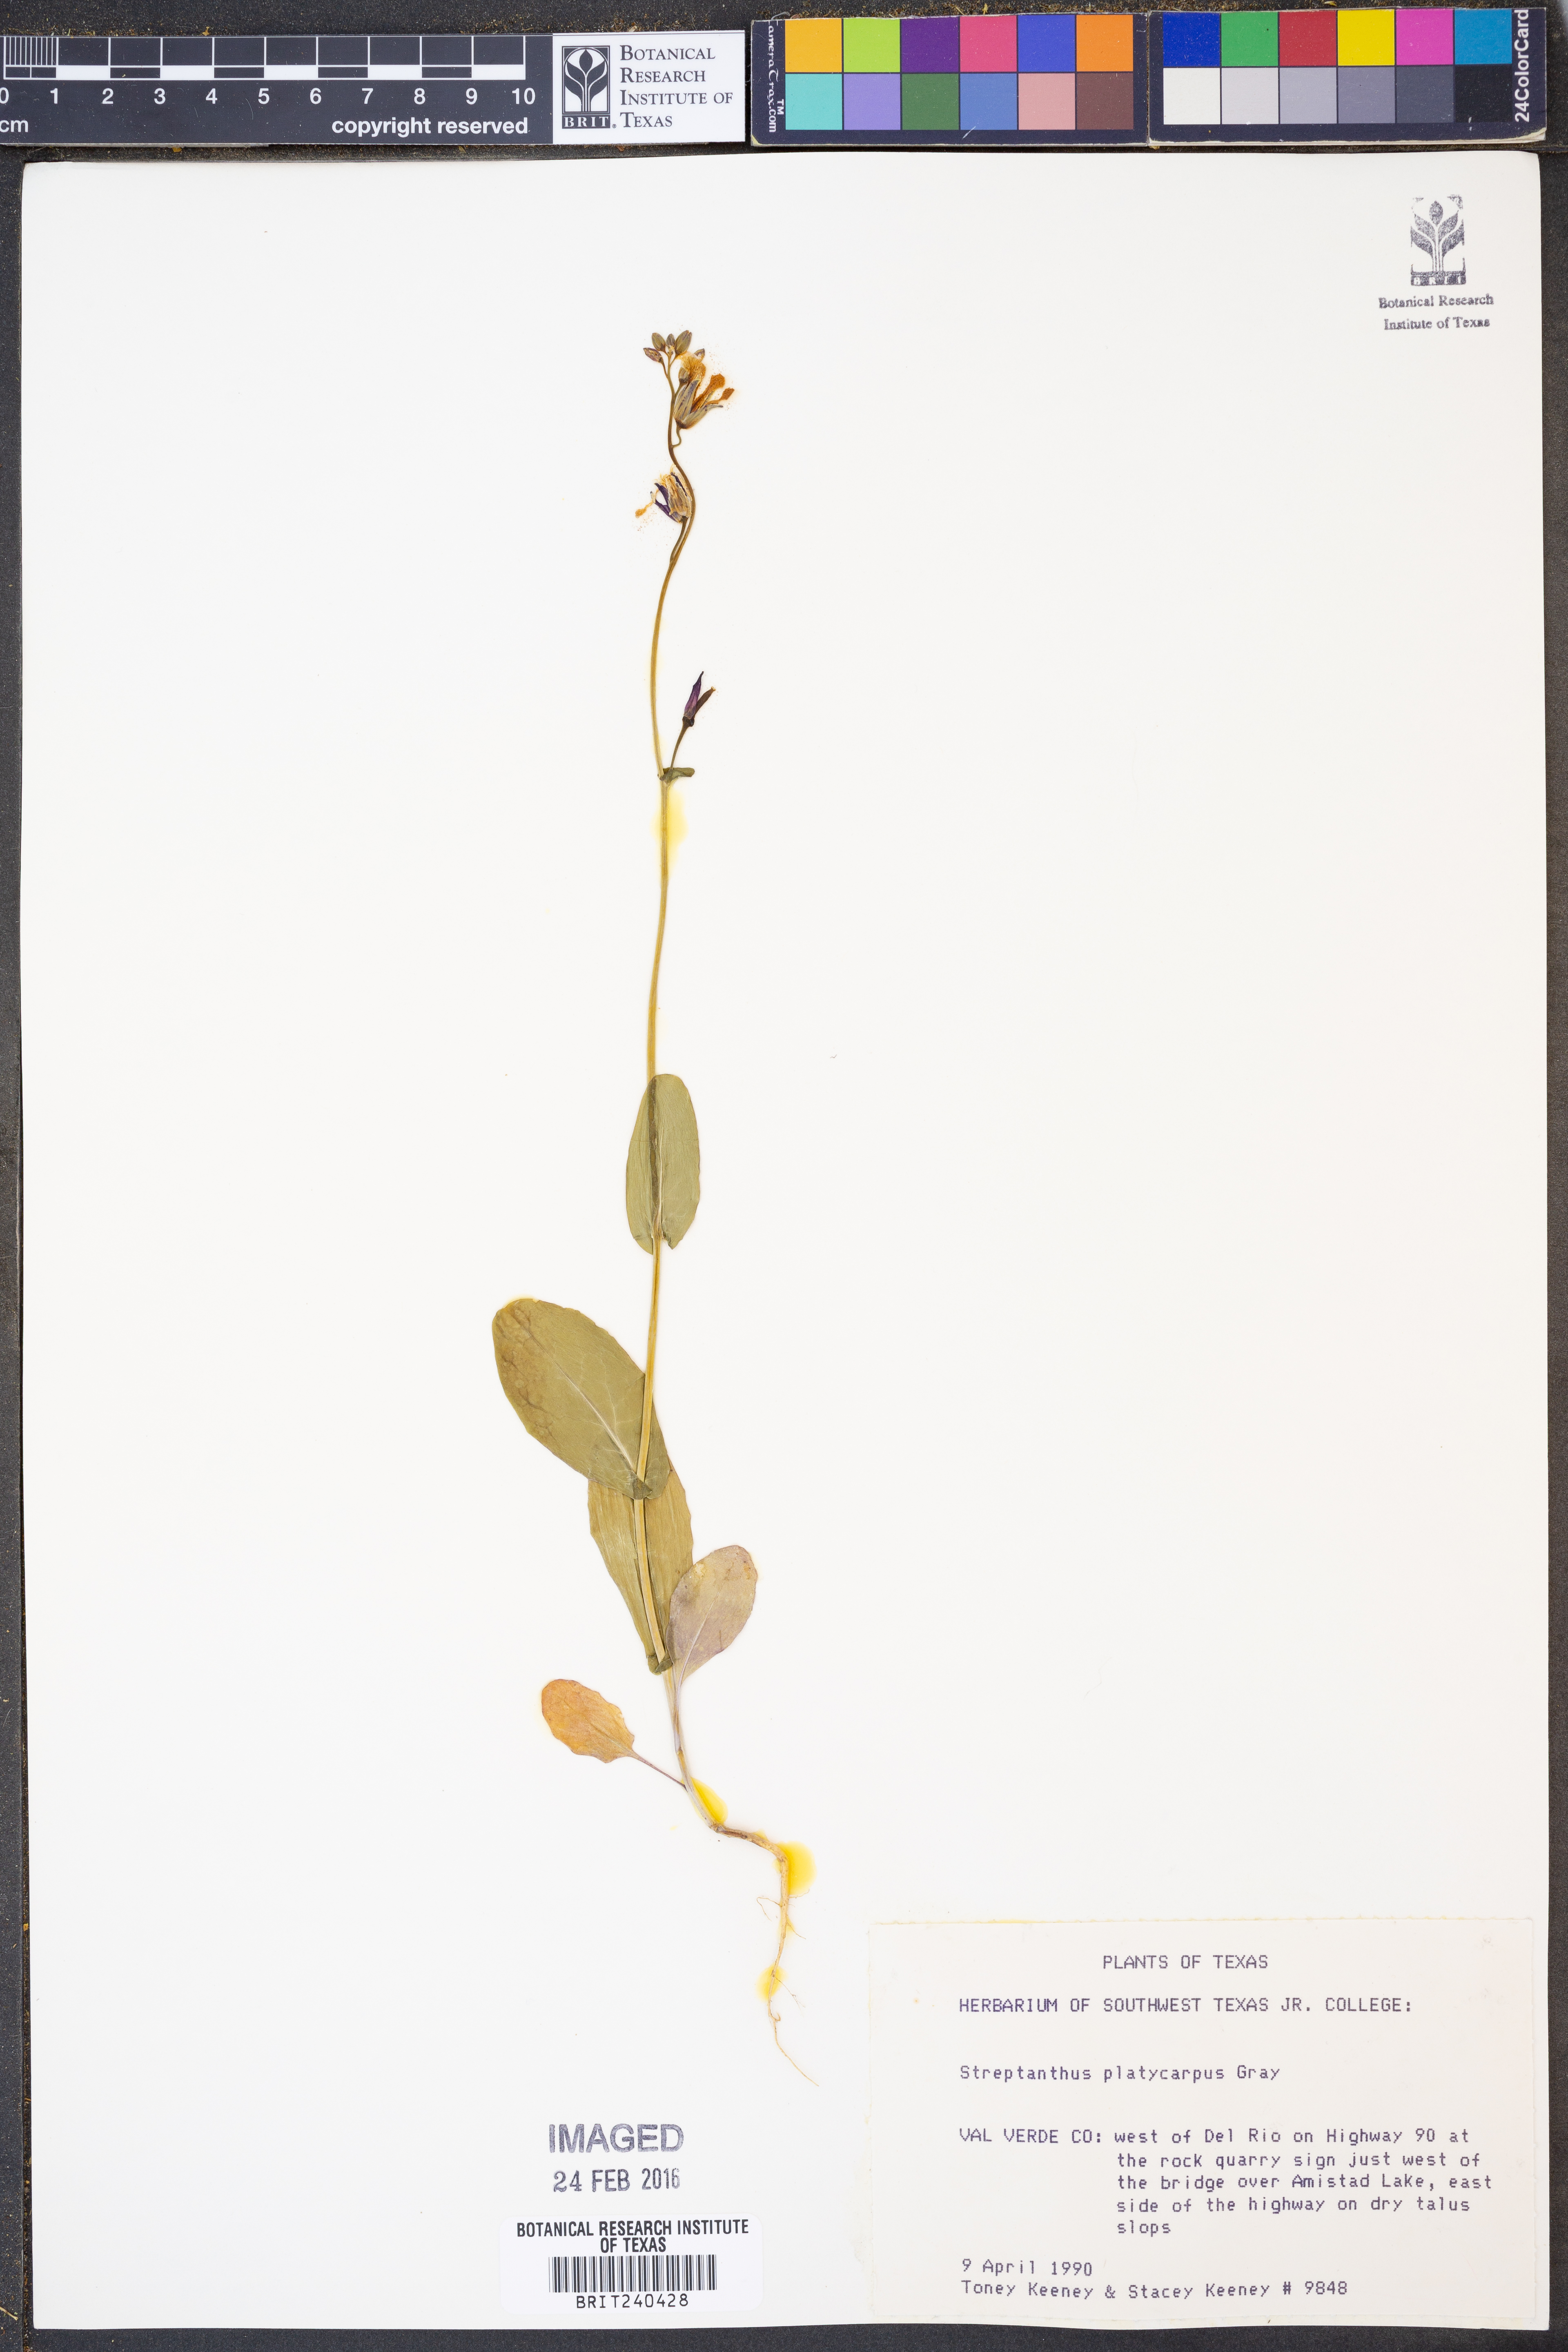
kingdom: Plantae
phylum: Tracheophyta
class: Magnoliopsida
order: Brassicales
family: Brassicaceae
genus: Streptanthus
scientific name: Streptanthus platycarpus
